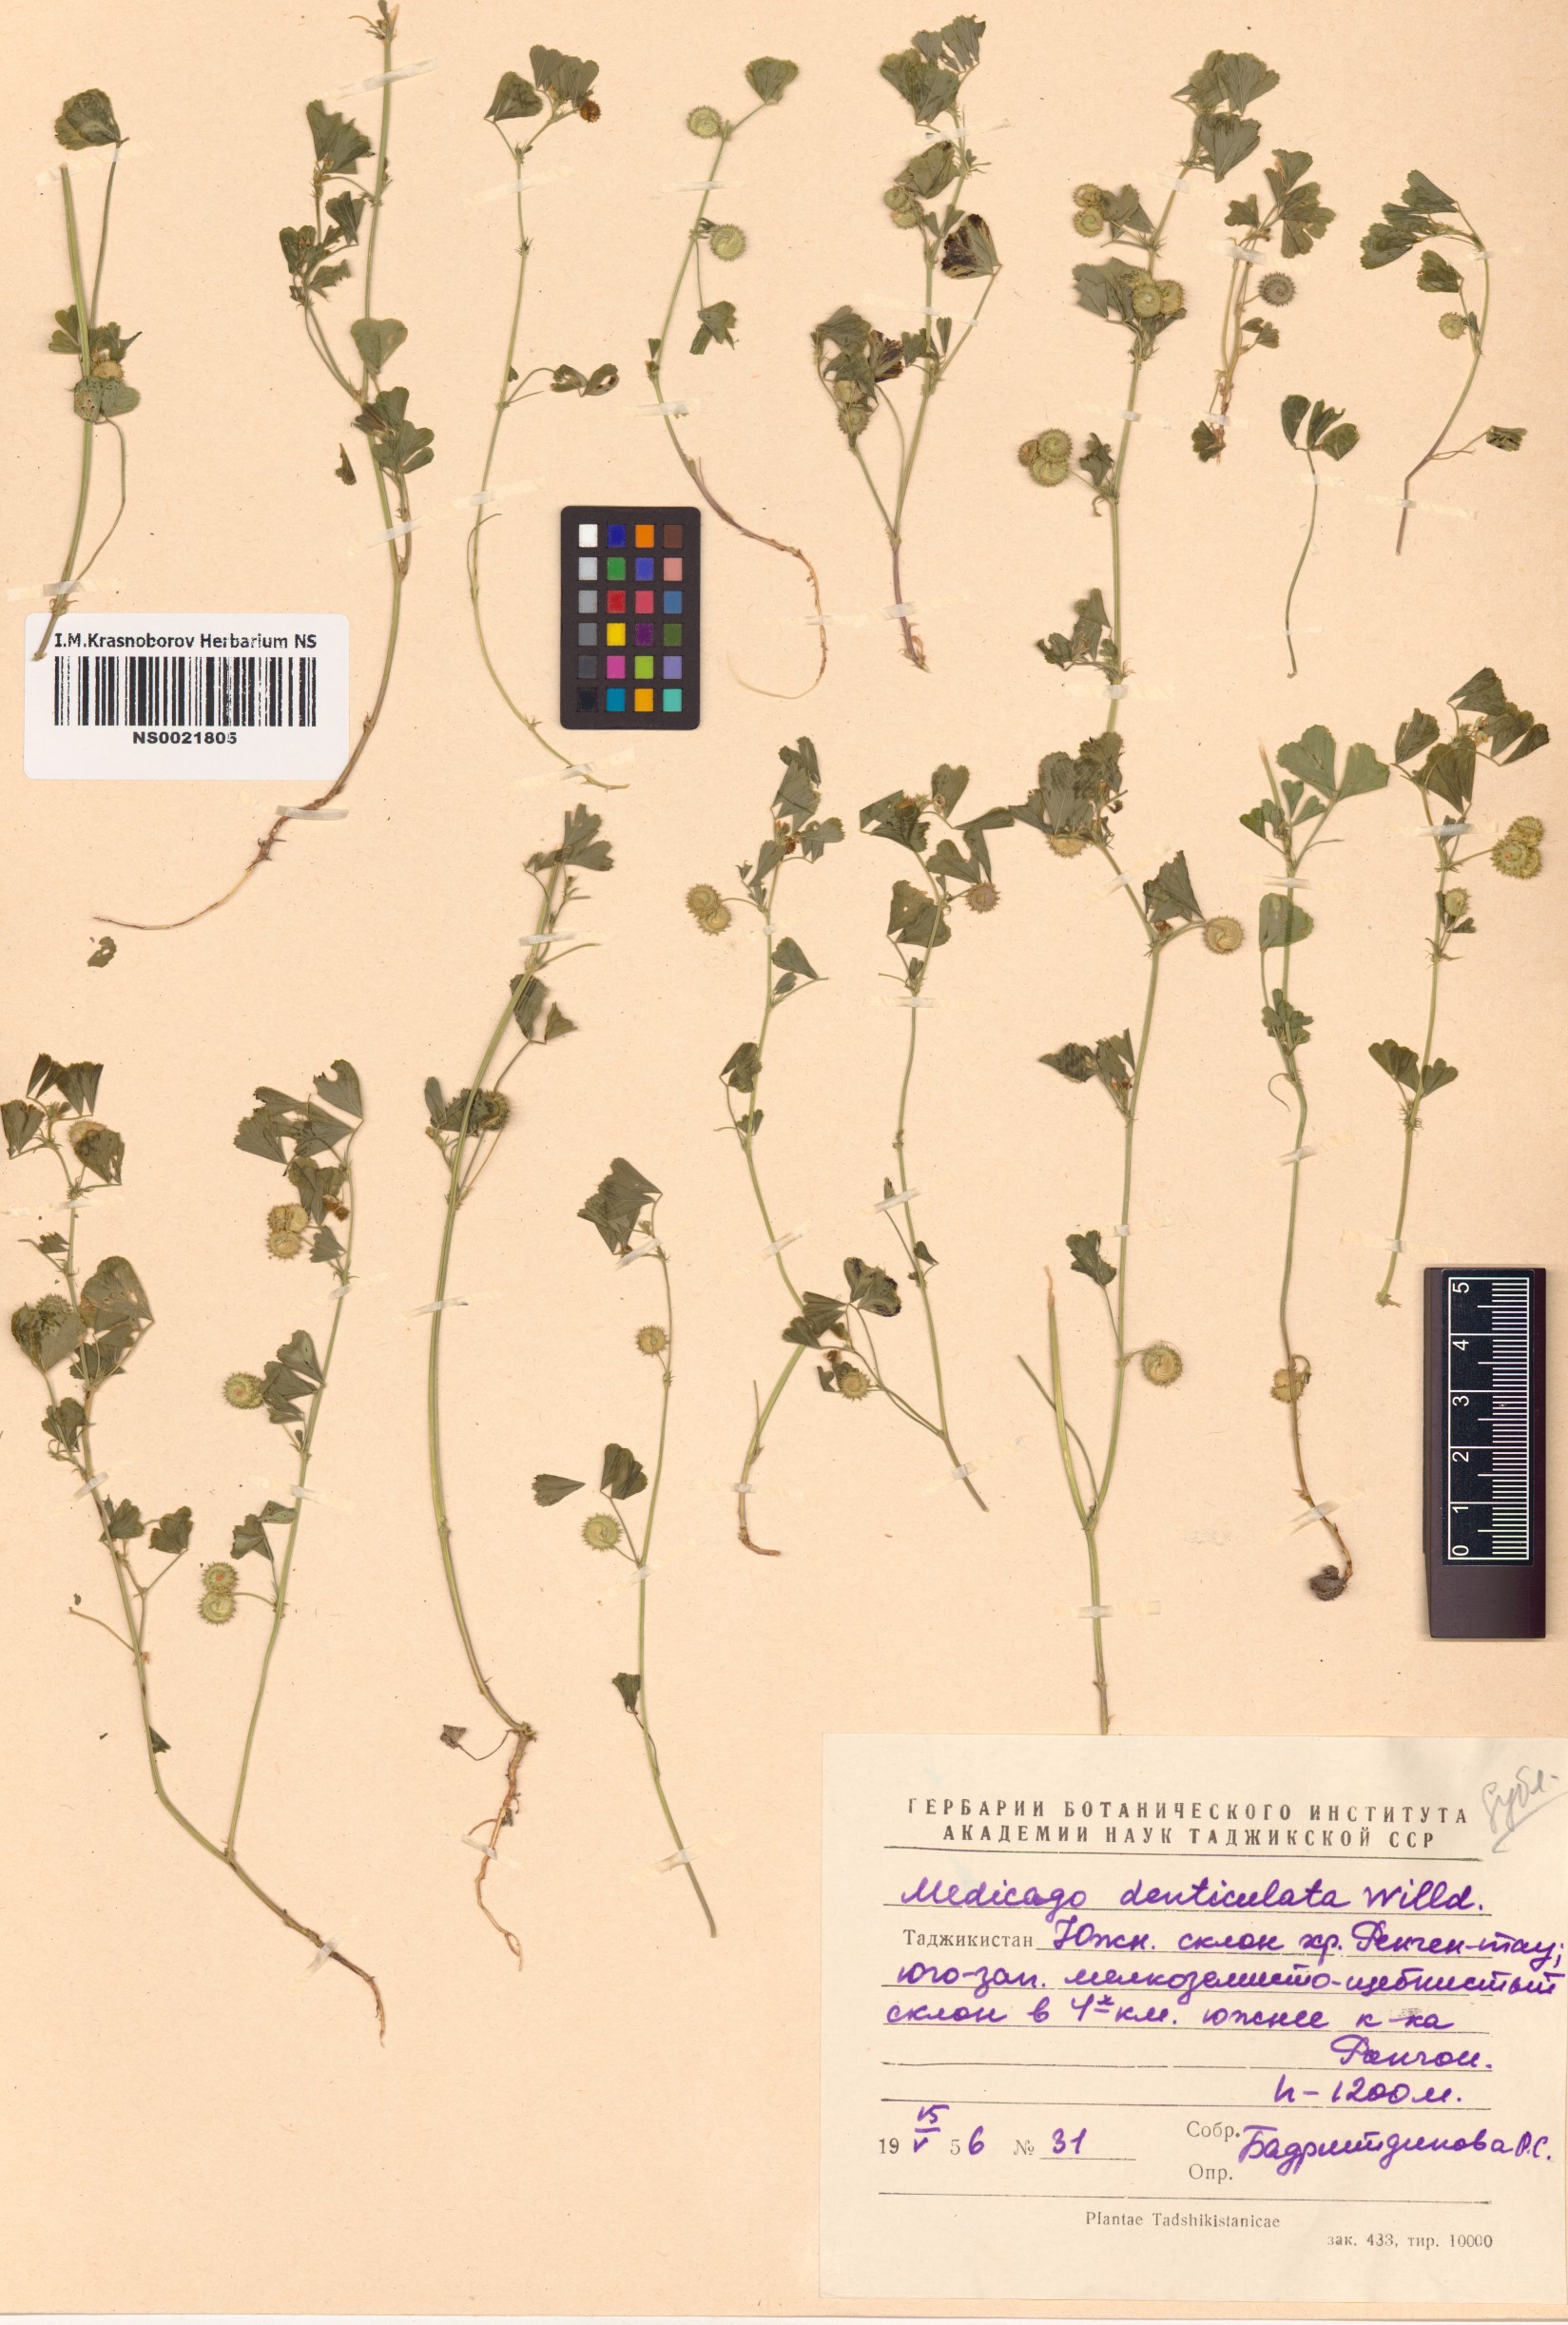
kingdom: Plantae
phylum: Tracheophyta
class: Magnoliopsida
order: Fabales
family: Fabaceae
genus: Medicago
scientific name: Medicago polymorpha
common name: Burclover
